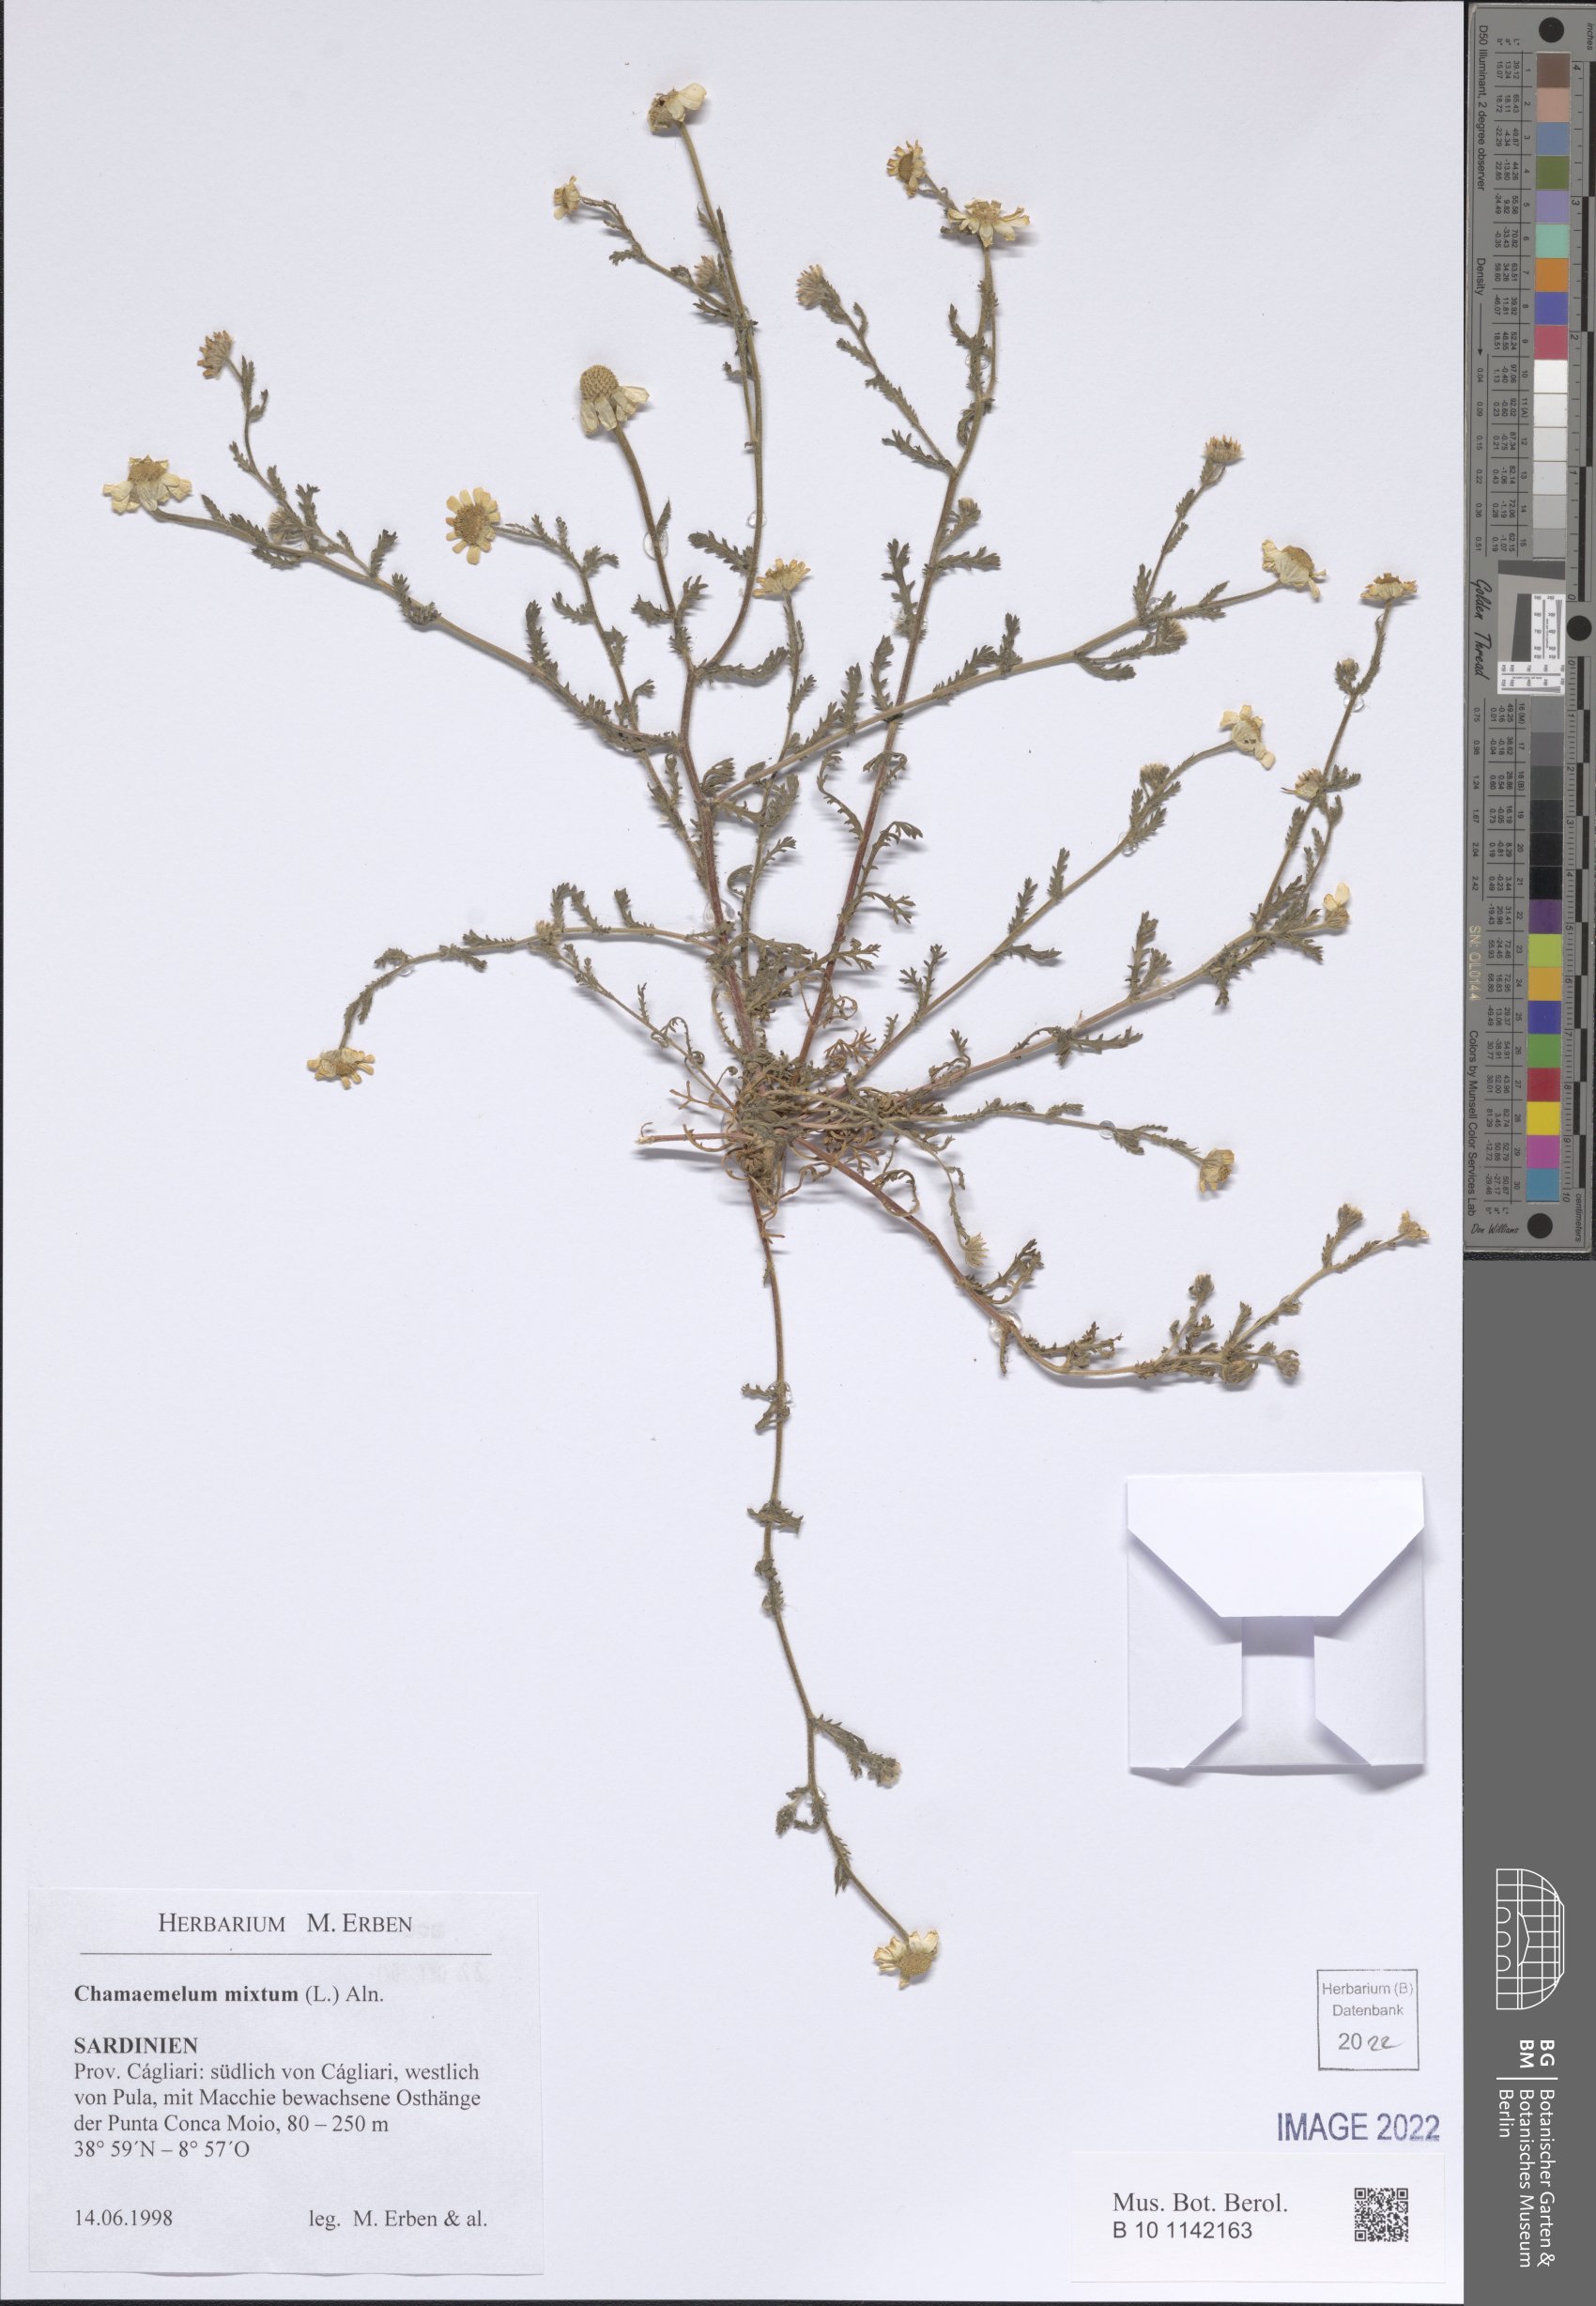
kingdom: Plantae
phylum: Tracheophyta
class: Magnoliopsida
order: Asterales
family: Asteraceae
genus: Cladanthus
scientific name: Cladanthus mixtus
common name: Weedy dogfennel
